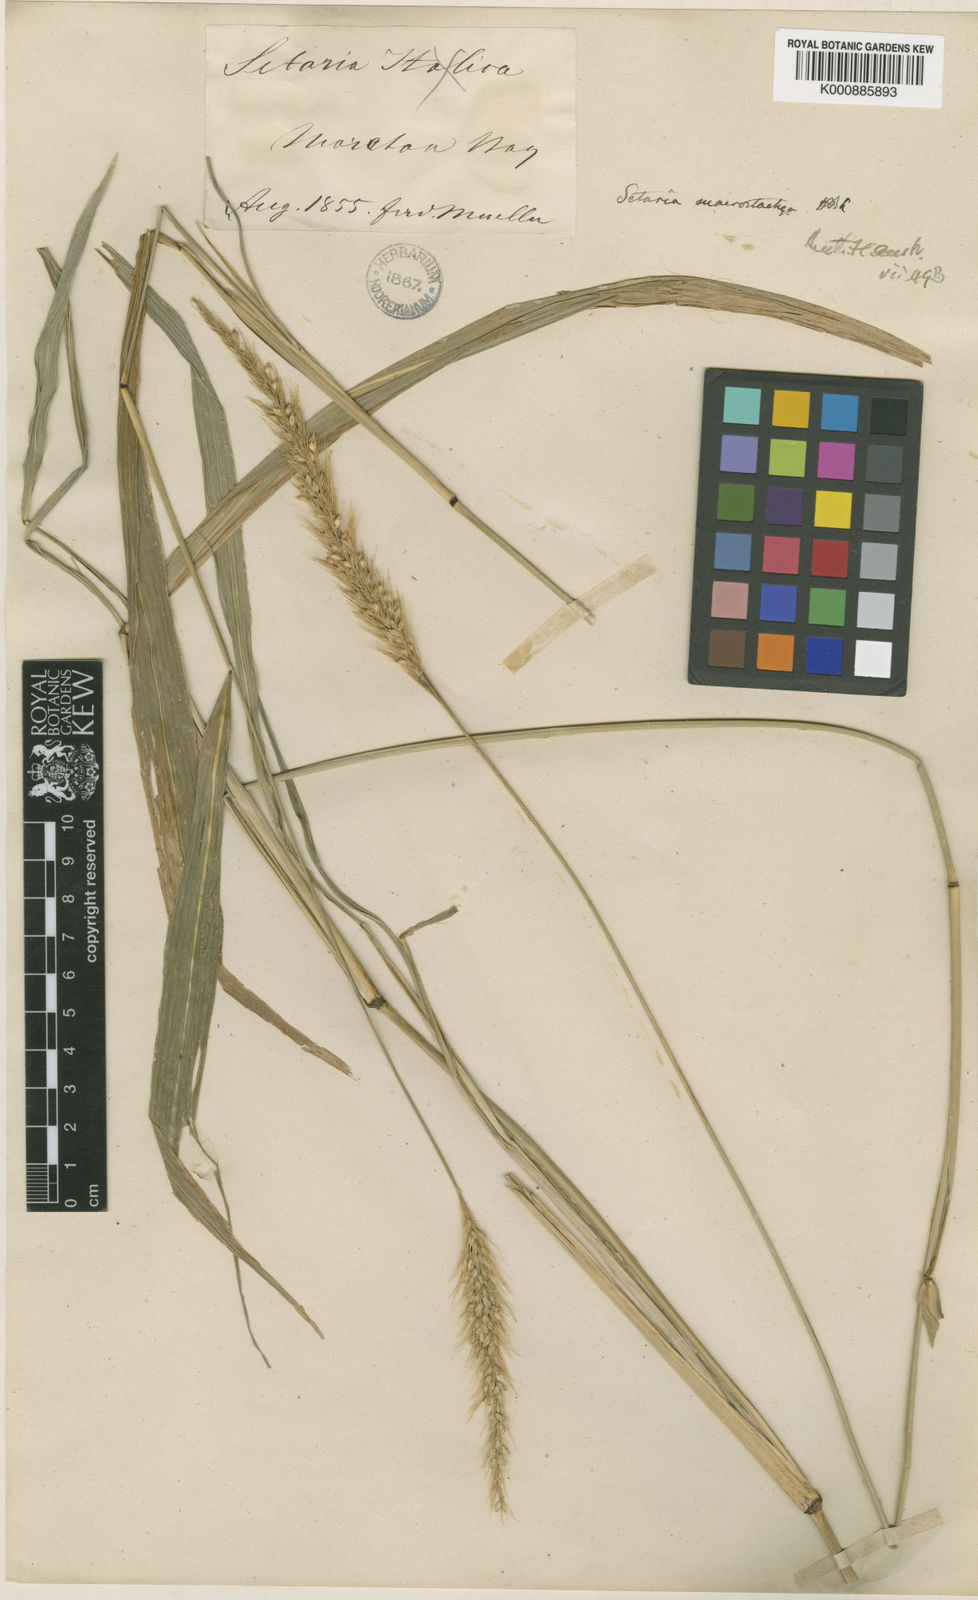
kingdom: Plantae
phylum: Tracheophyta
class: Liliopsida
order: Poales
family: Poaceae
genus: Setaria
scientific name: Setaria australiensis
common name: Scrub pigeon grass
